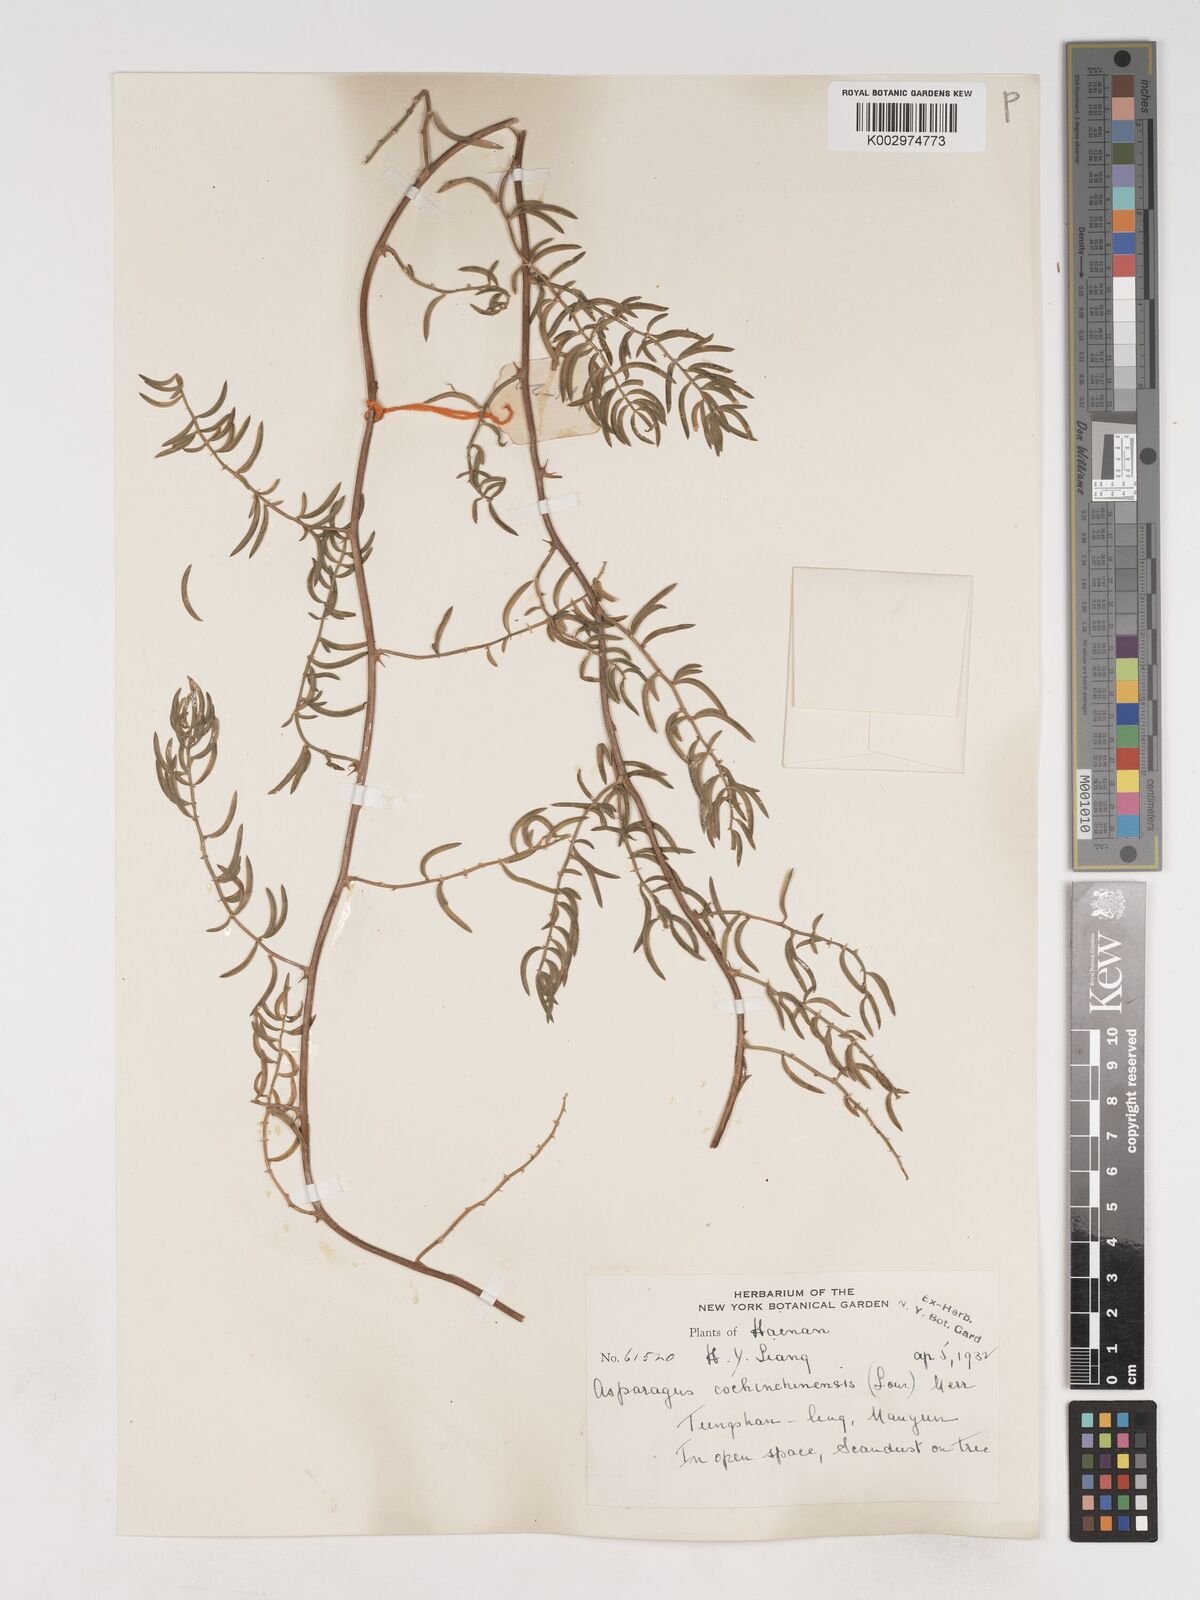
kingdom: Plantae
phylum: Tracheophyta
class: Liliopsida
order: Asparagales
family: Asparagaceae
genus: Asparagus
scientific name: Asparagus cochinchinensis
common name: Chinese asparagus
